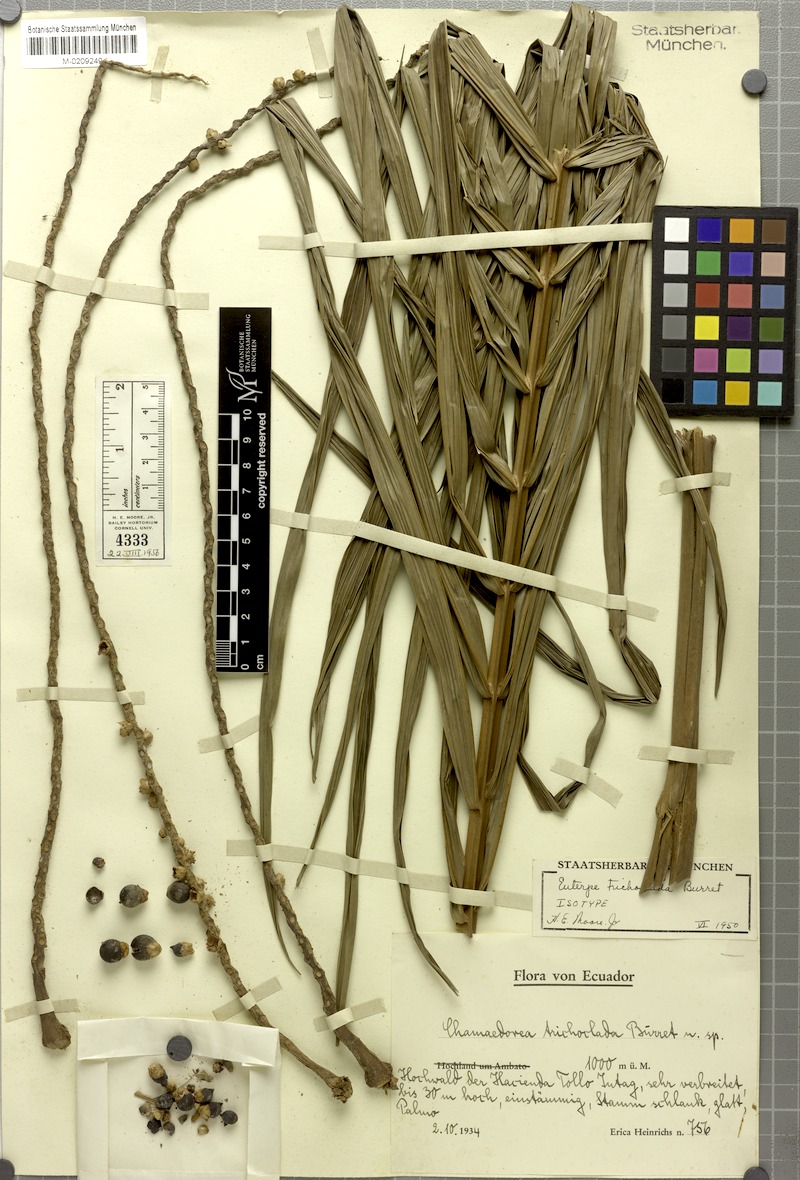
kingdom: Plantae
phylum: Tracheophyta
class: Liliopsida
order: Arecales
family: Arecaceae
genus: Prestoea
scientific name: Prestoea acuminata
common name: Sierran palm
